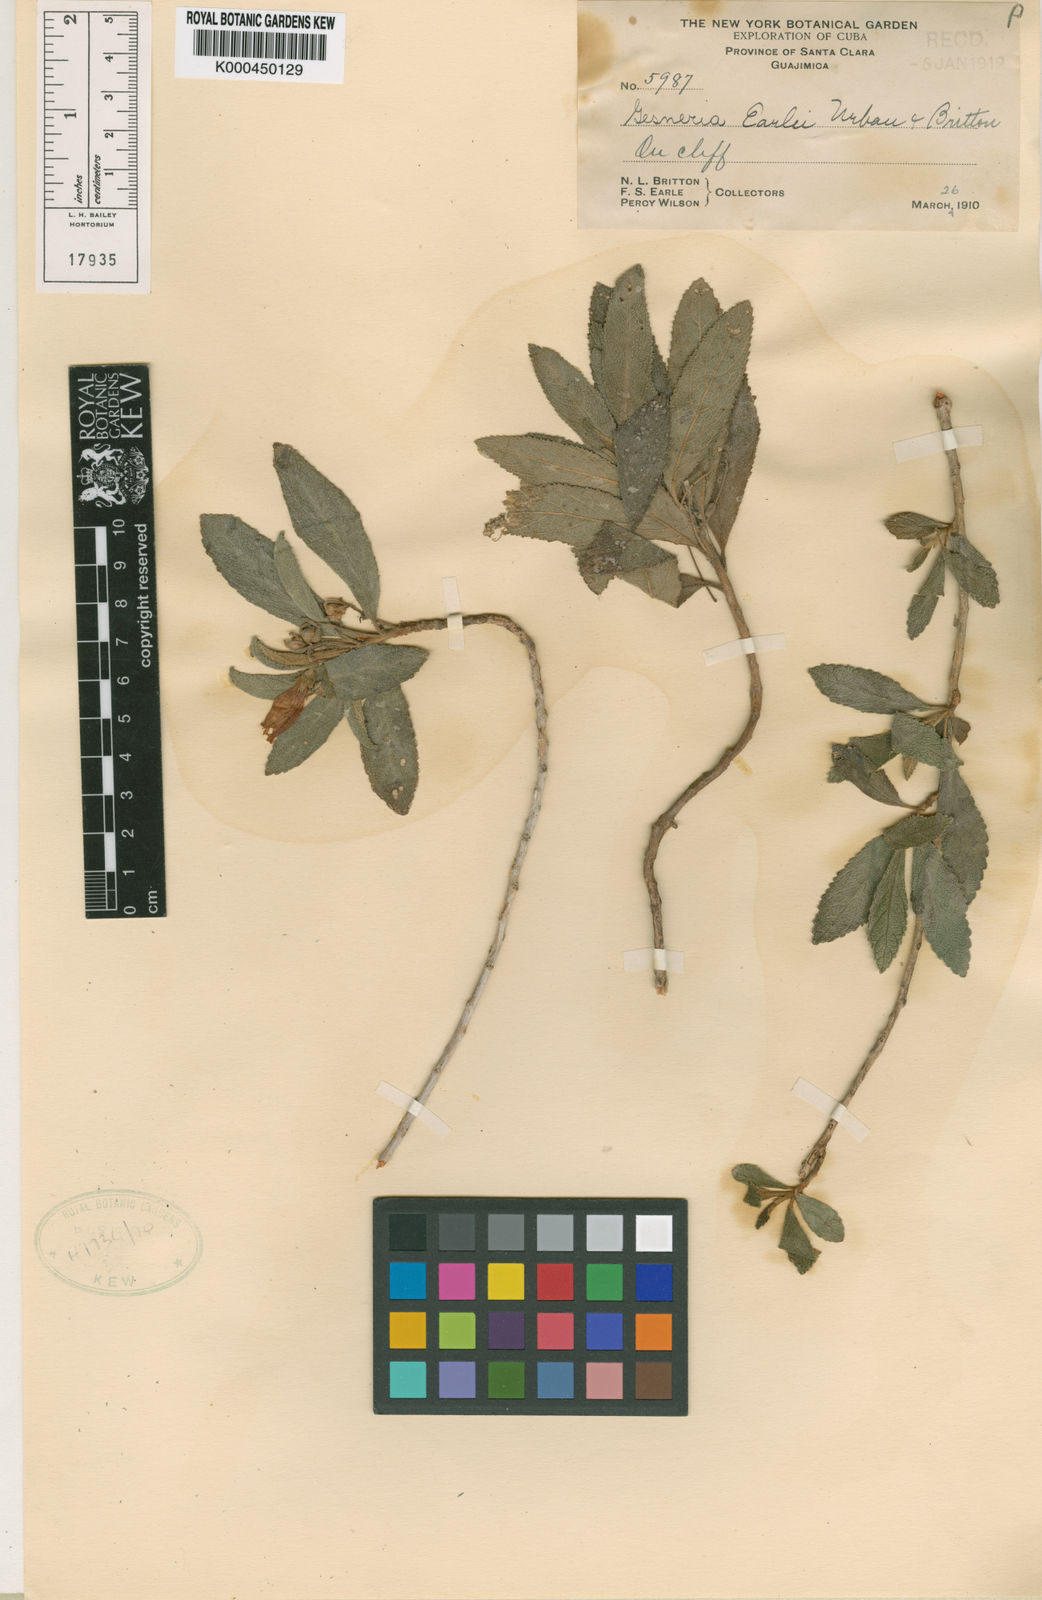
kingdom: Plantae
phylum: Tracheophyta
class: Magnoliopsida
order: Lamiales
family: Gesneriaceae
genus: Rhytidophyllum
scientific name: Rhytidophyllum earlei
